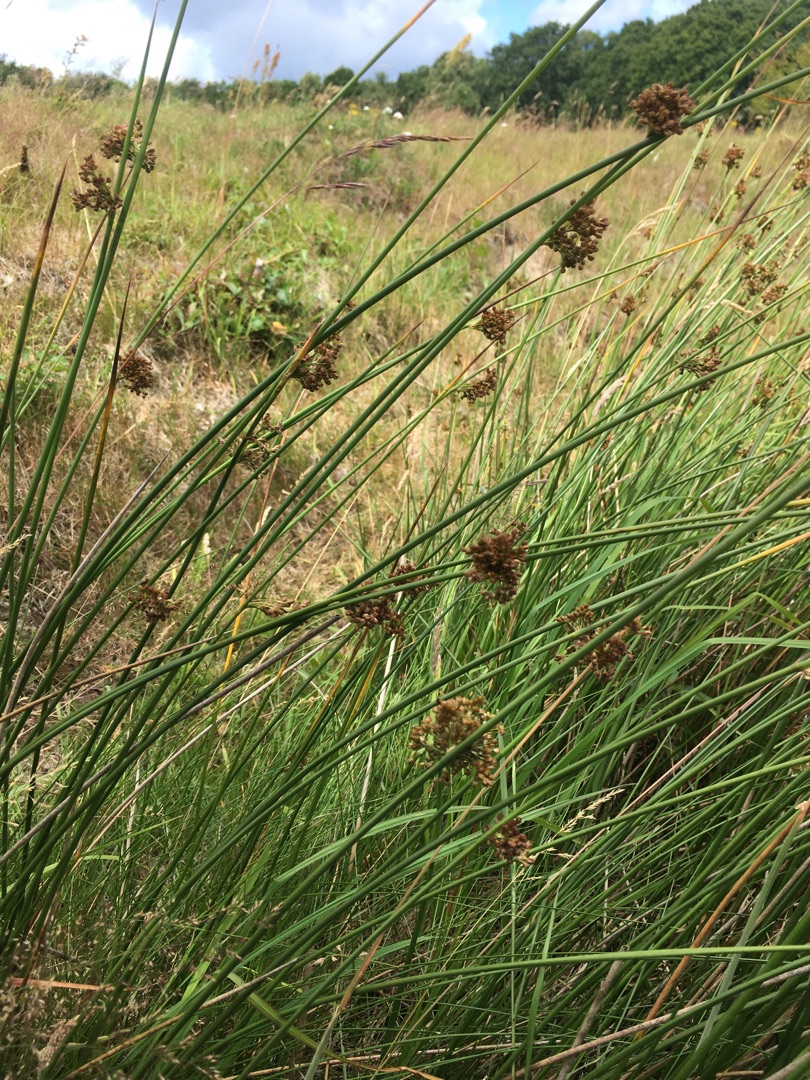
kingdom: Plantae
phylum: Tracheophyta
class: Liliopsida
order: Poales
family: Juncaceae
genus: Juncus
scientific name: Juncus effusus
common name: Lyse-siv
